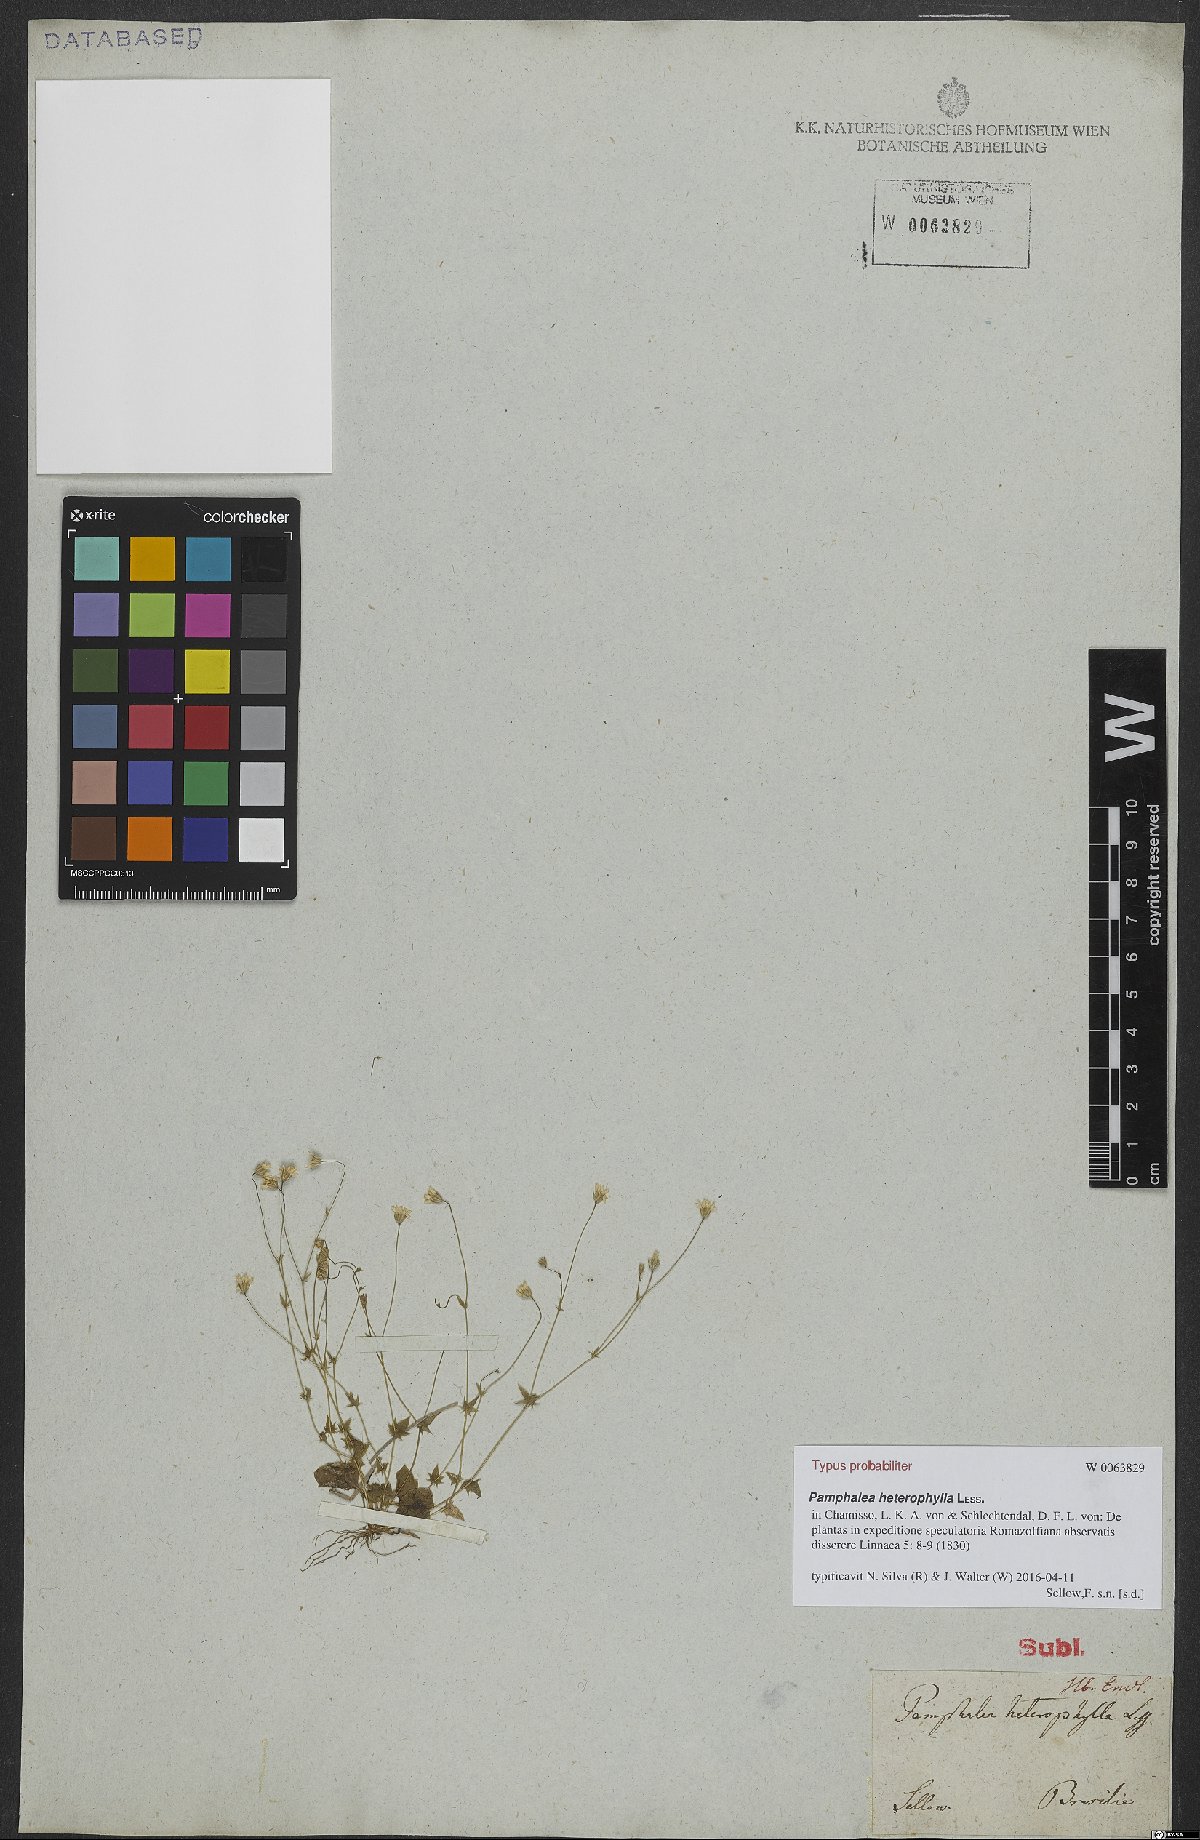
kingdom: Plantae
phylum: Tracheophyta
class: Magnoliopsida
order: Asterales
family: Asteraceae
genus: Pamphalea
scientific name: Pamphalea heterophylla
